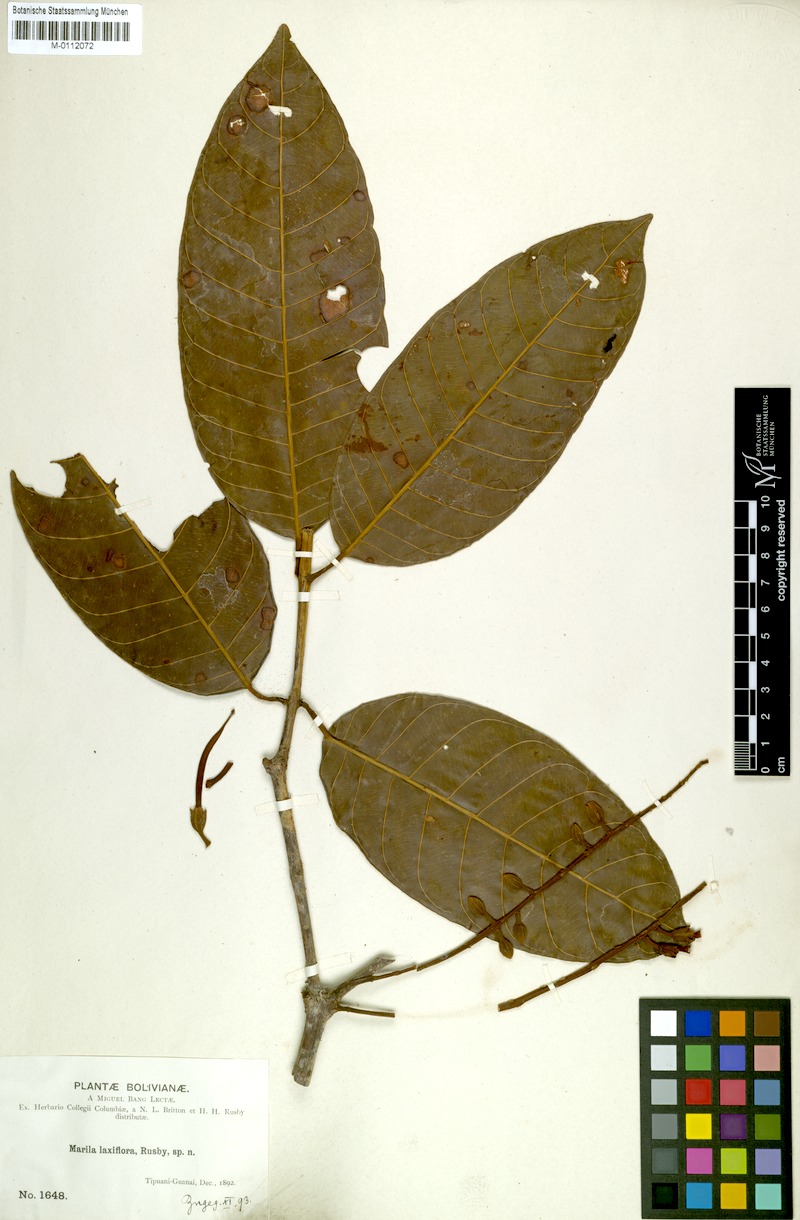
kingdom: Plantae
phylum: Tracheophyta
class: Magnoliopsida
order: Malpighiales
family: Calophyllaceae
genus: Marila
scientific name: Marila laxiflora
